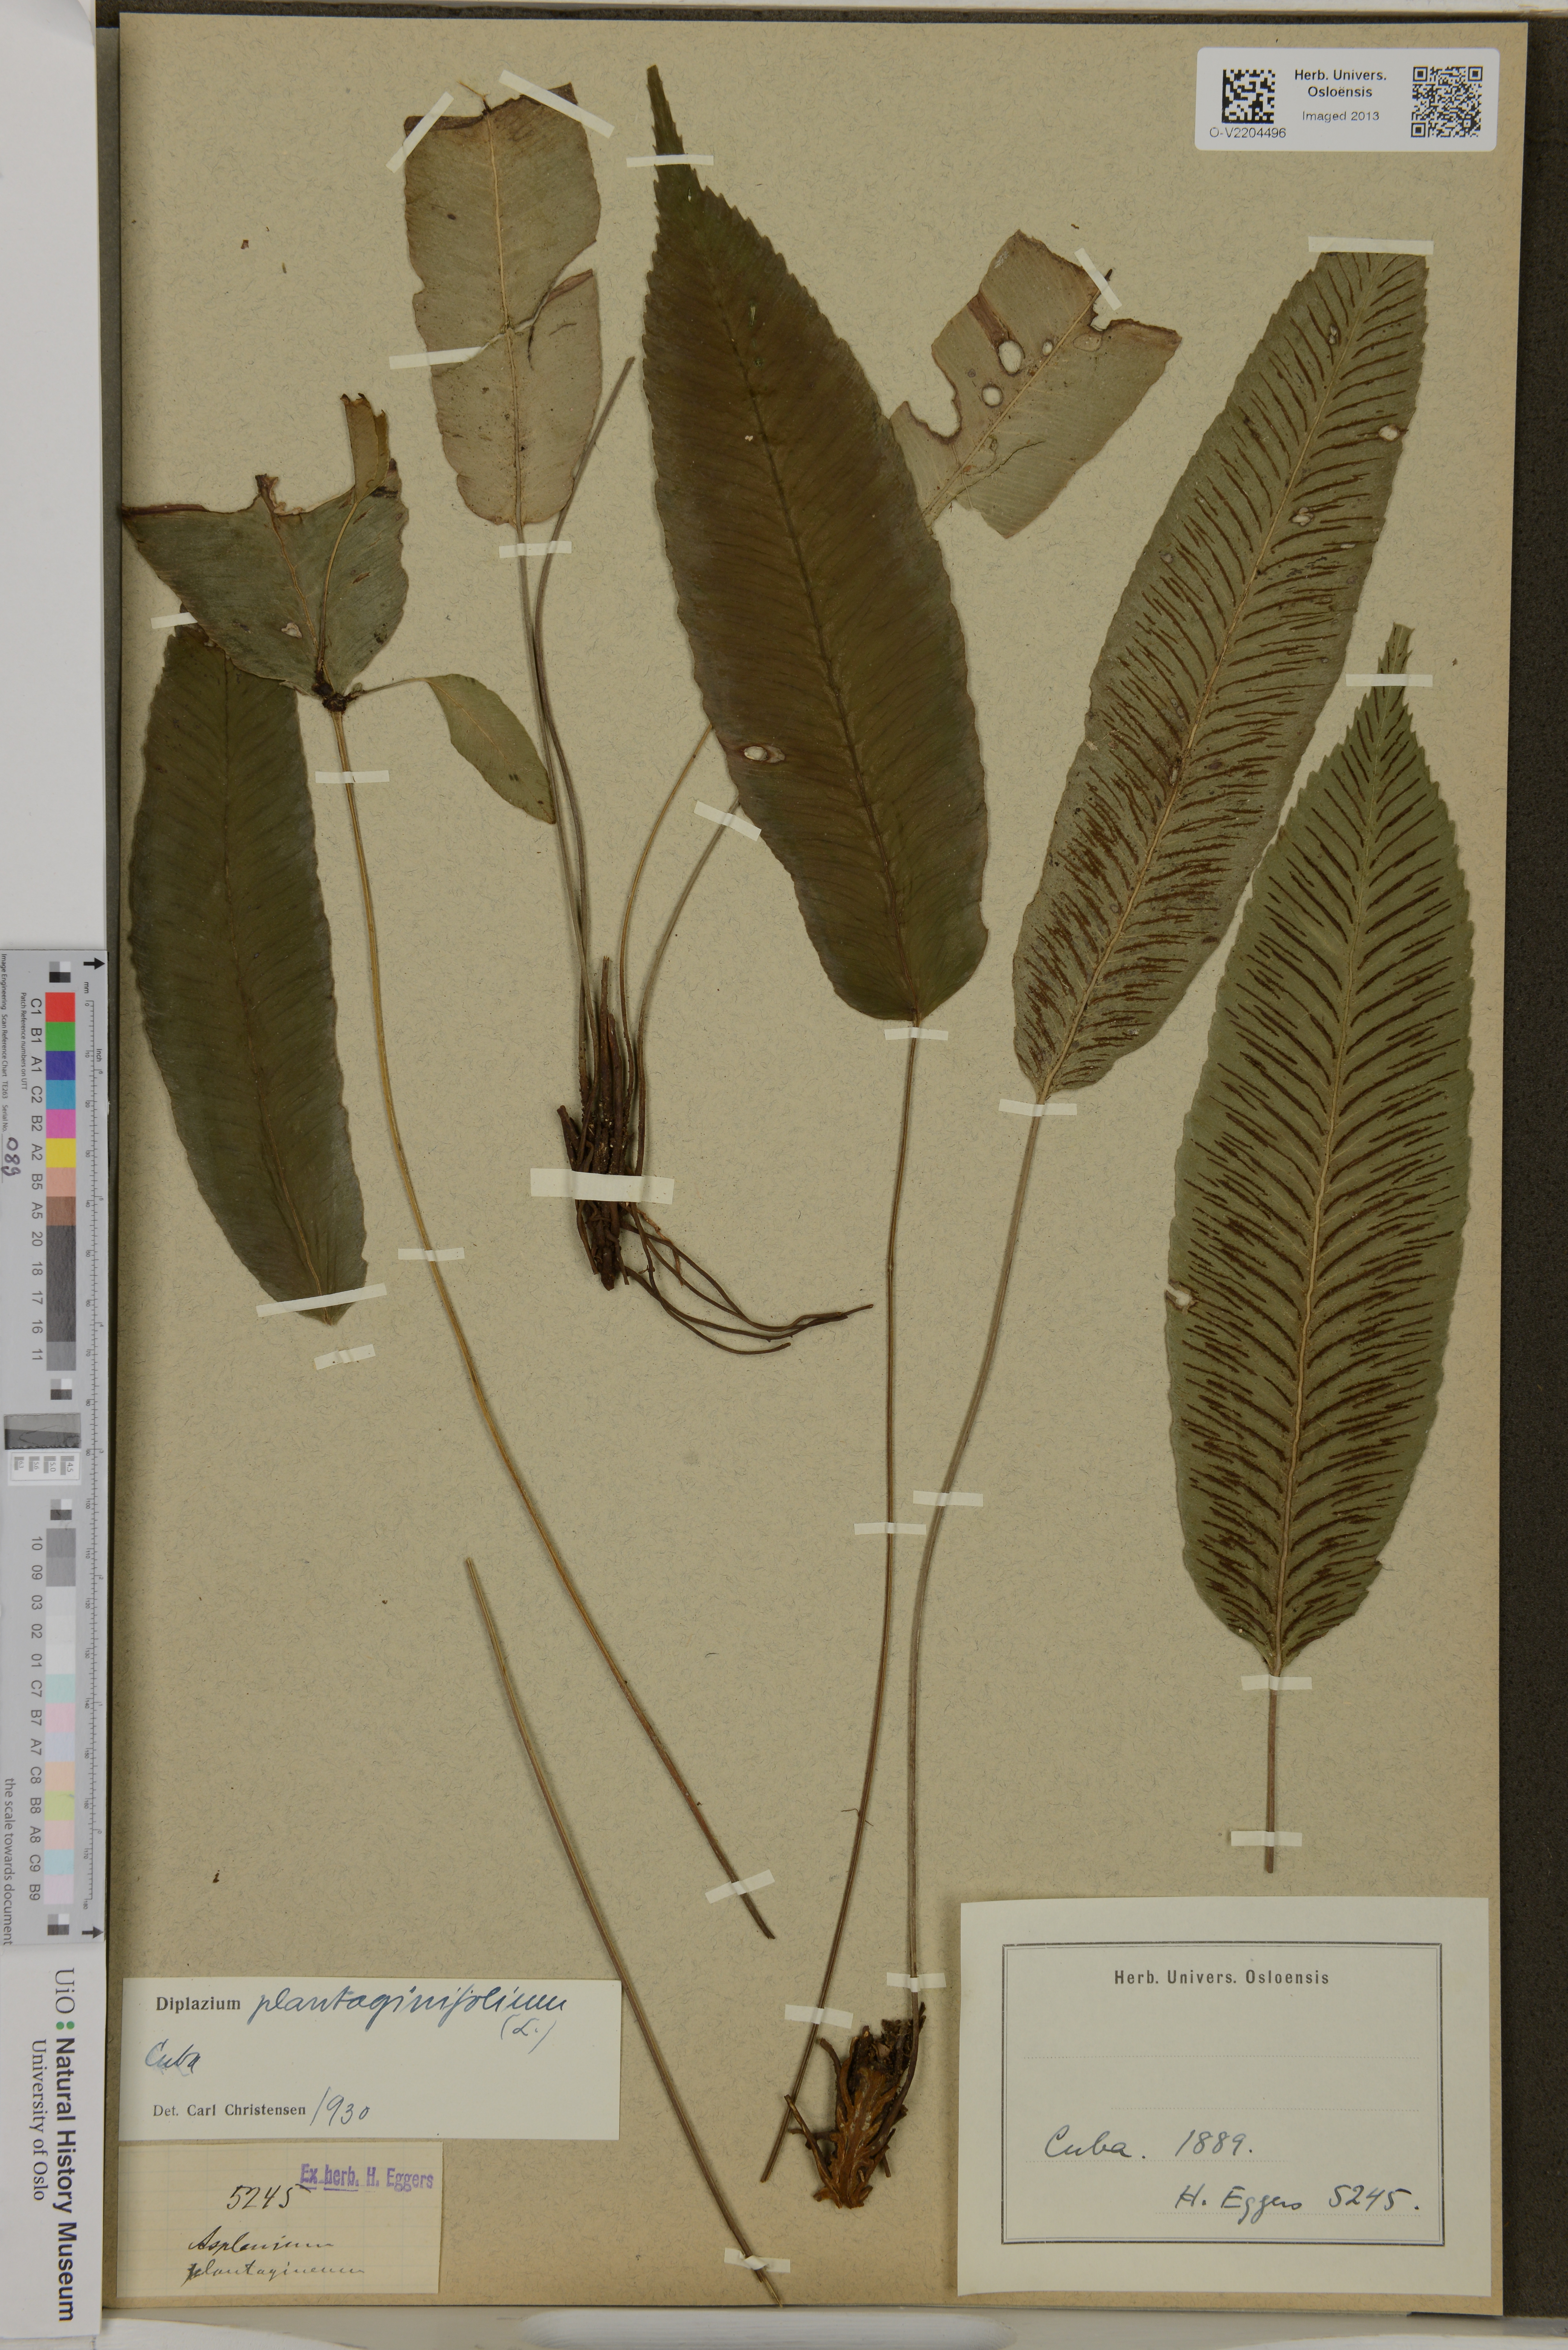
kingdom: Plantae
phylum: Tracheophyta
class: Polypodiopsida
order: Polypodiales
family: Athyriaceae
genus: Diplazium
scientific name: Diplazium plantaginifolium
